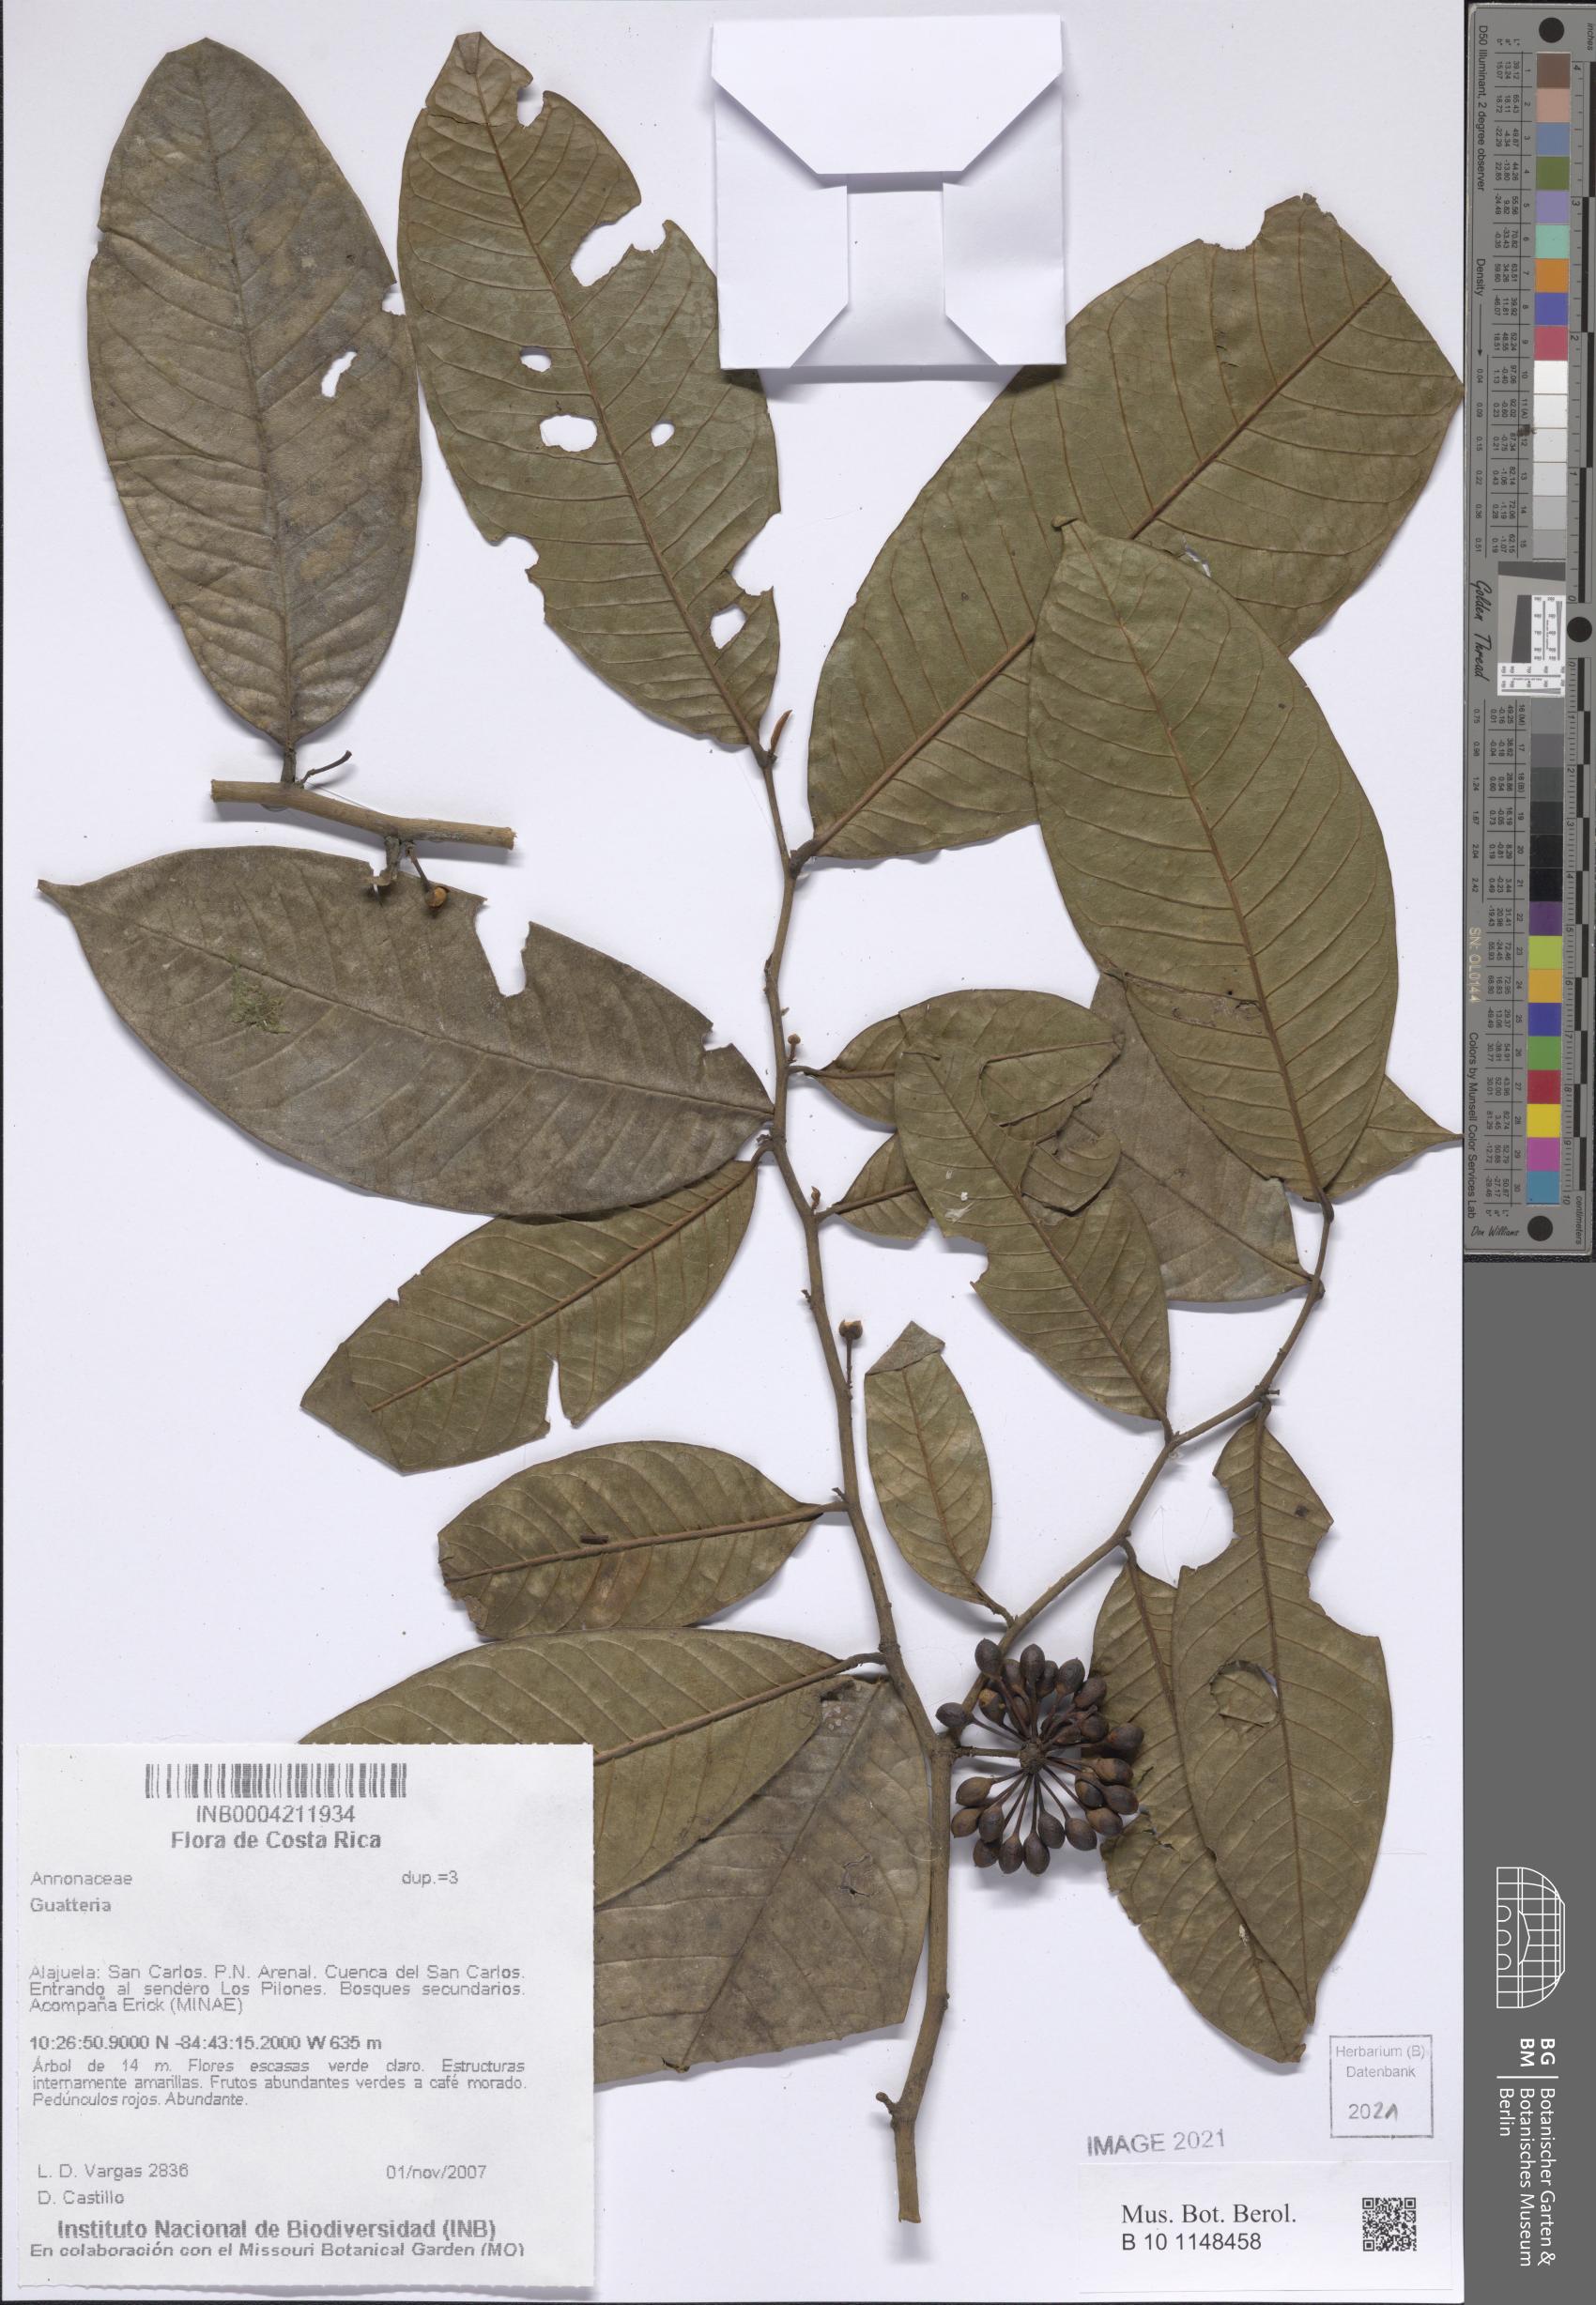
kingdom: Plantae
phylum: Tracheophyta
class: Magnoliopsida
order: Magnoliales
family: Annonaceae
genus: Guatteria
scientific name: Guatteria
